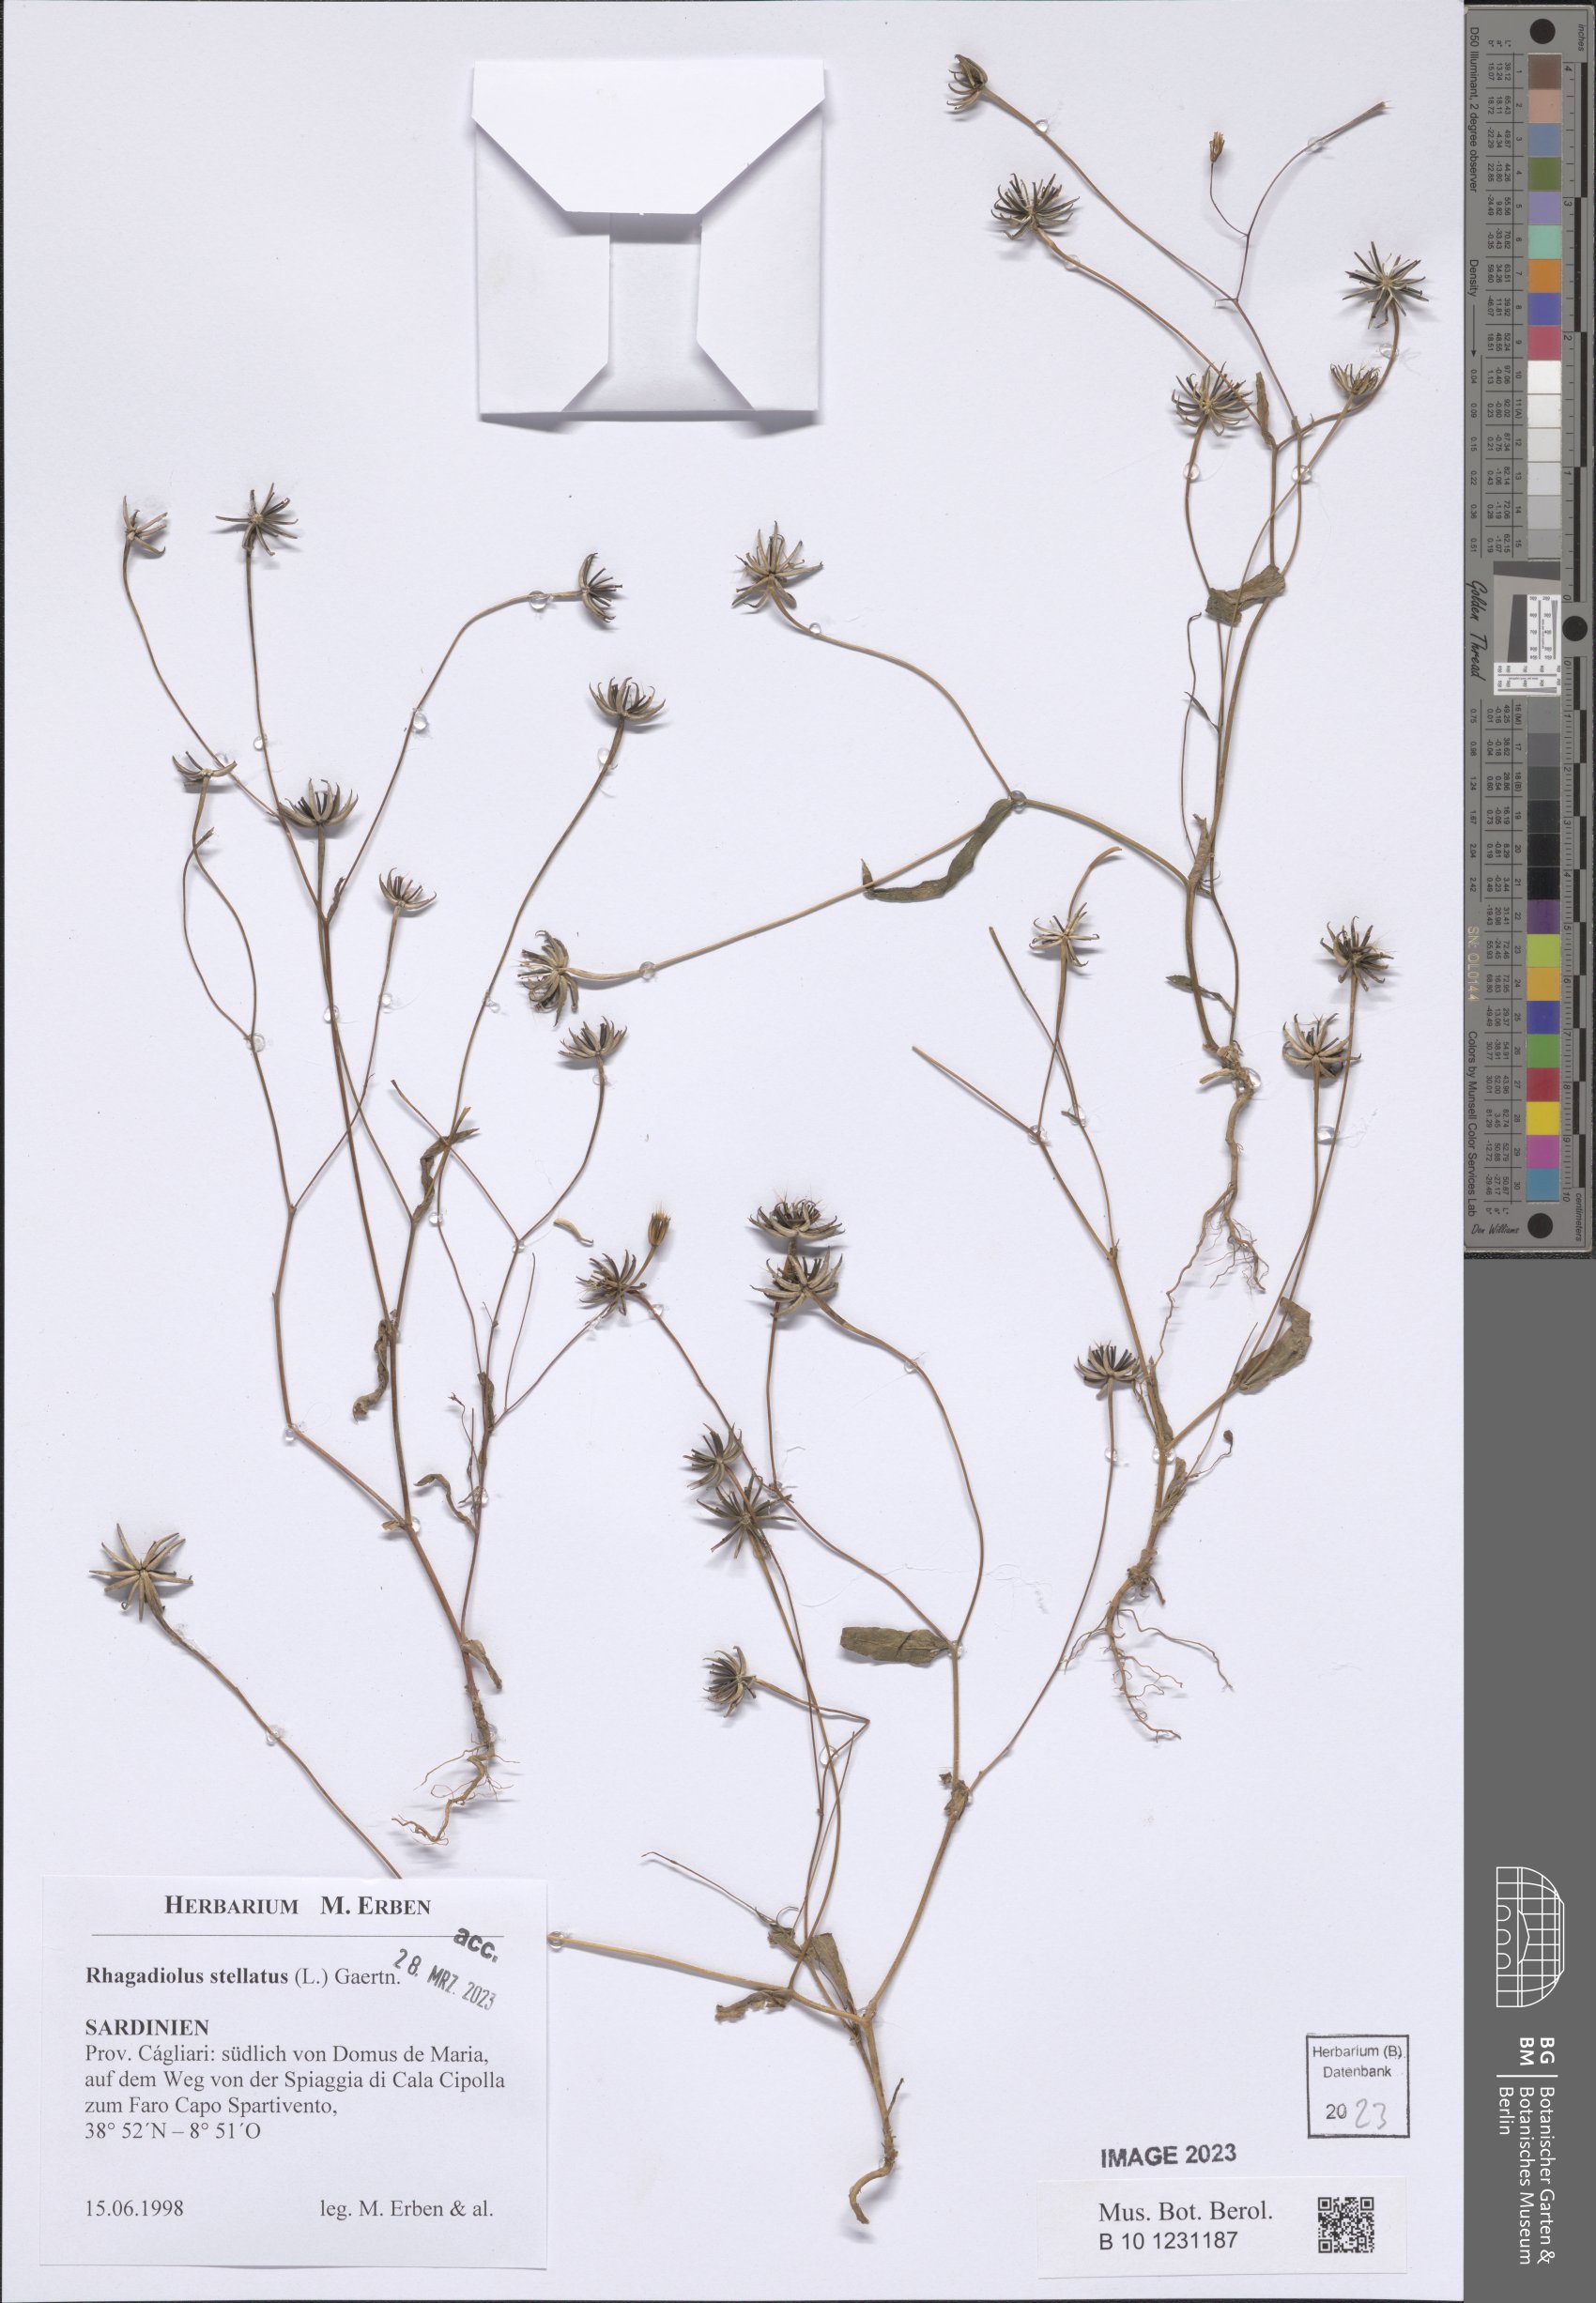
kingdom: Plantae
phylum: Tracheophyta
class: Magnoliopsida
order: Asterales
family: Asteraceae
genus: Rhagadiolus
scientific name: Rhagadiolus stellatus
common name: Star hawkbit
